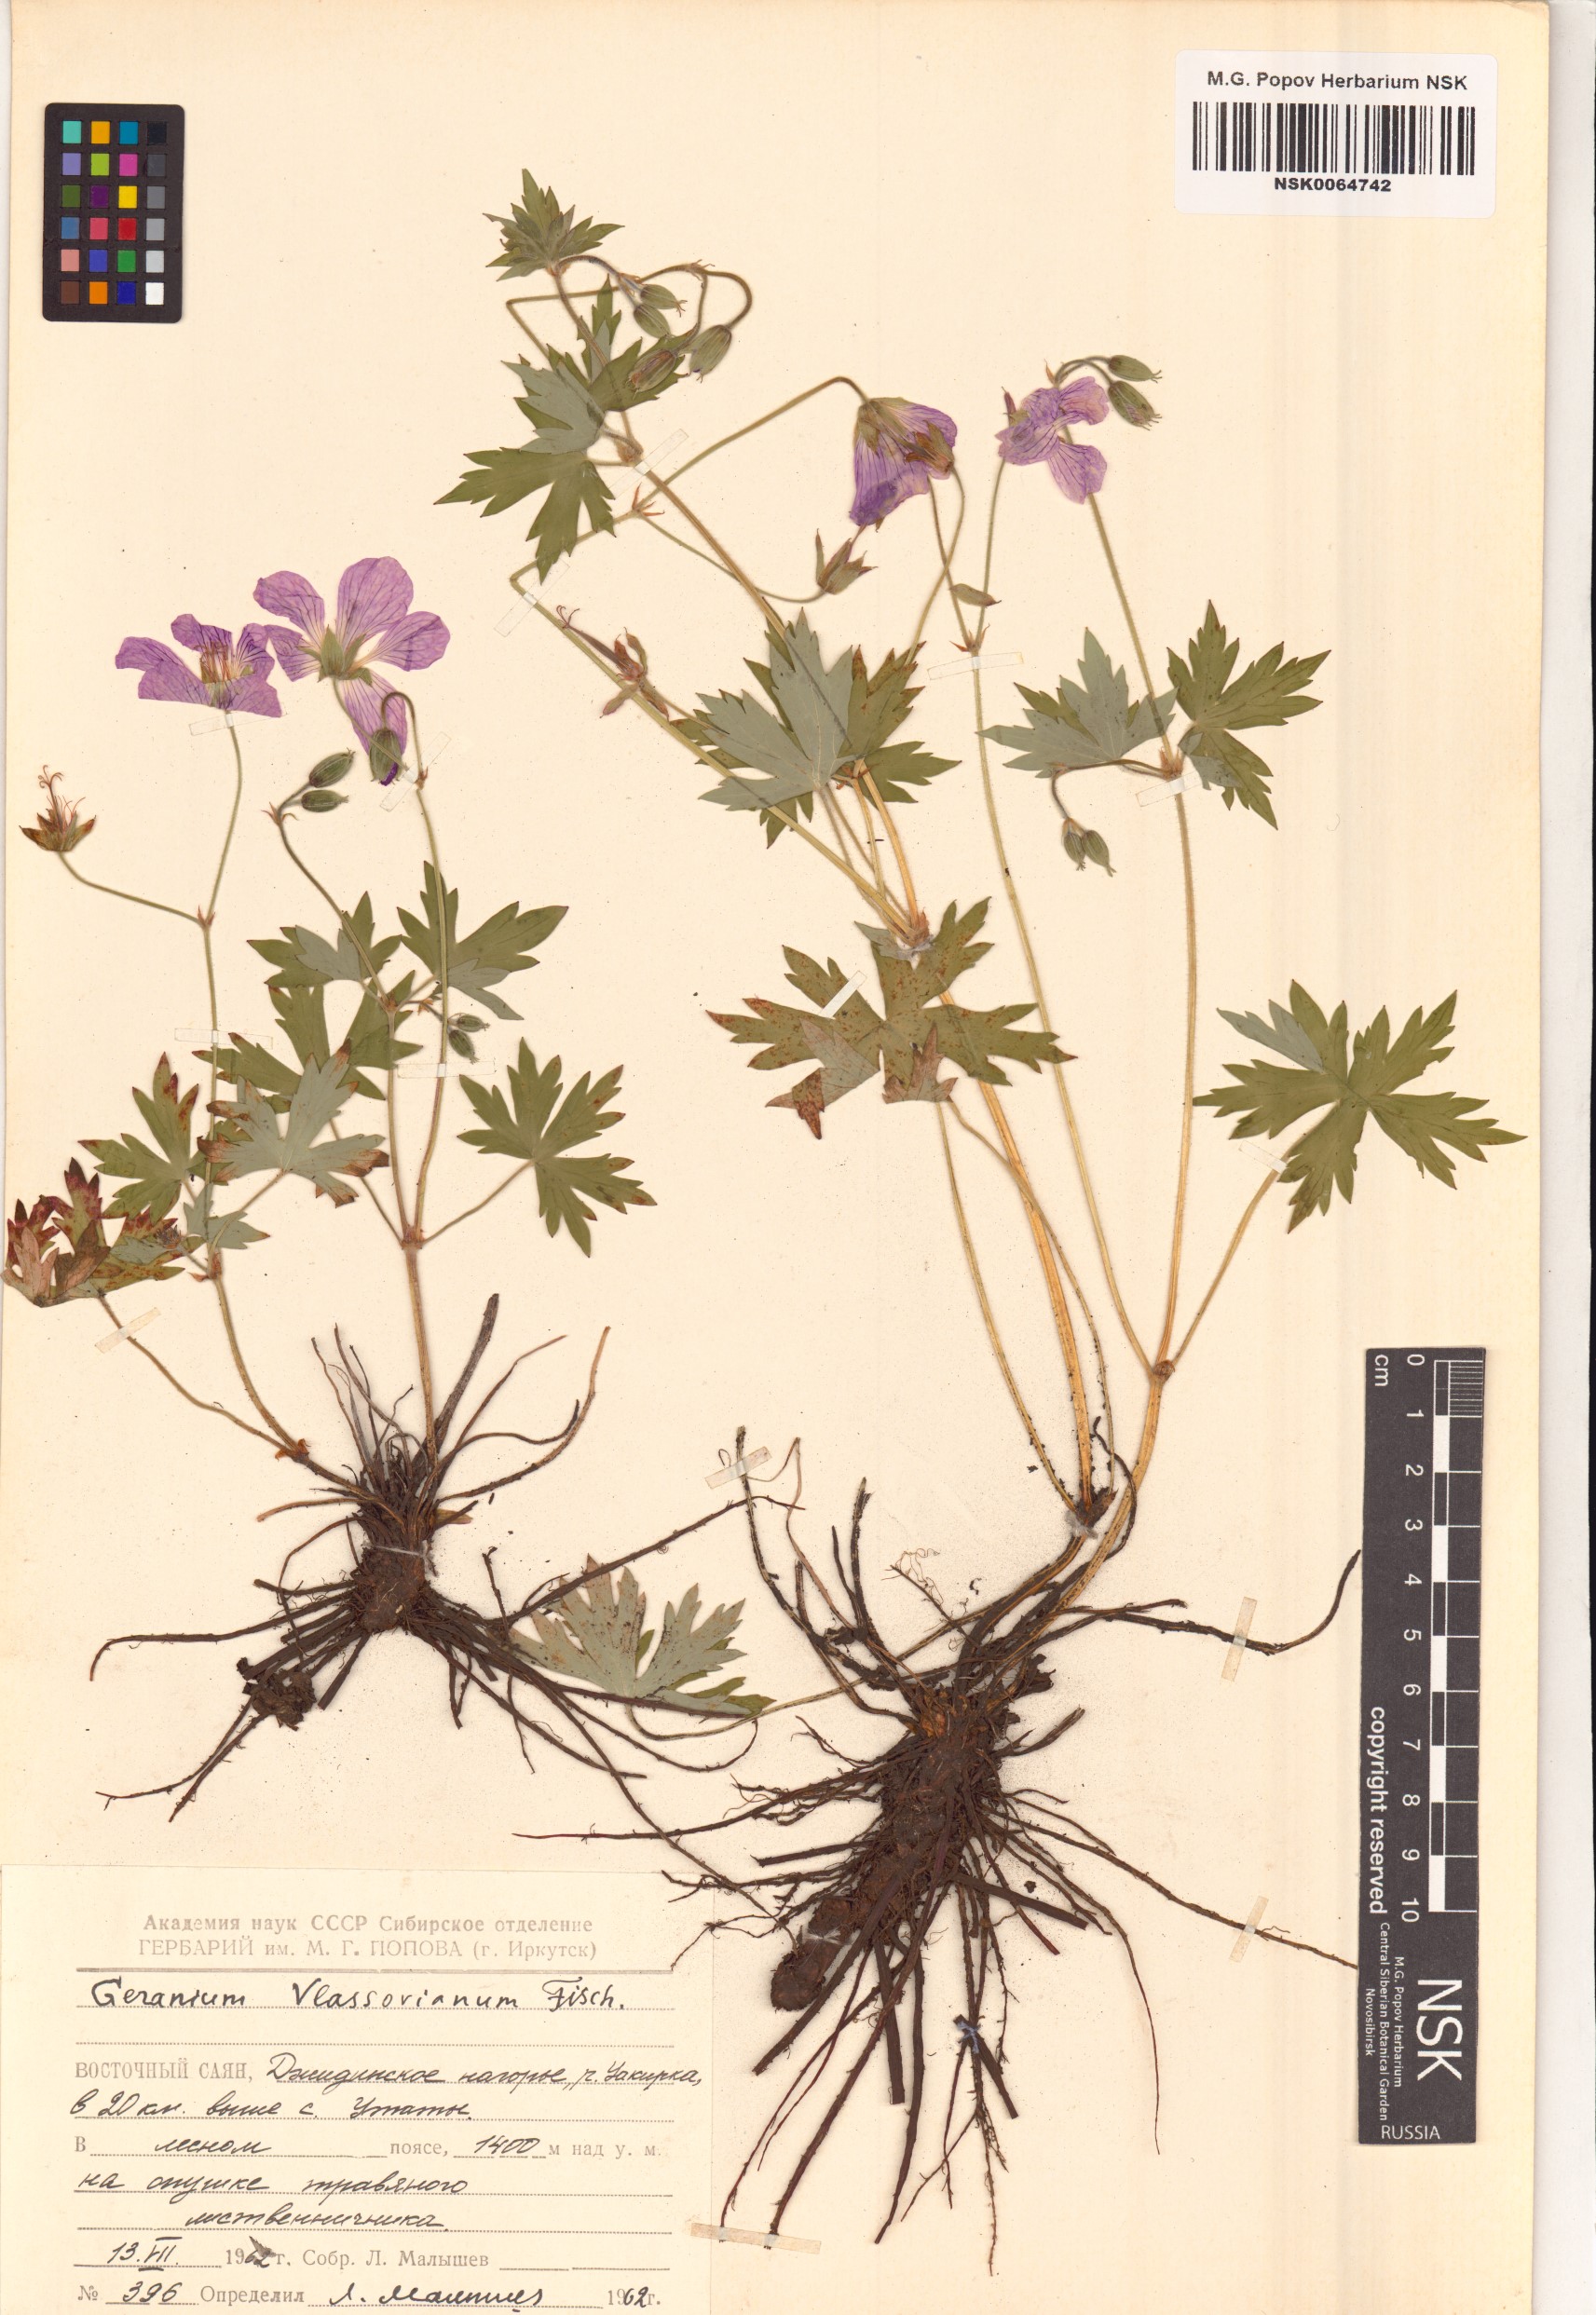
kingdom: Plantae
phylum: Tracheophyta
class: Magnoliopsida
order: Geraniales
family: Geraniaceae
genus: Geranium
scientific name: Geranium wlassovianum
